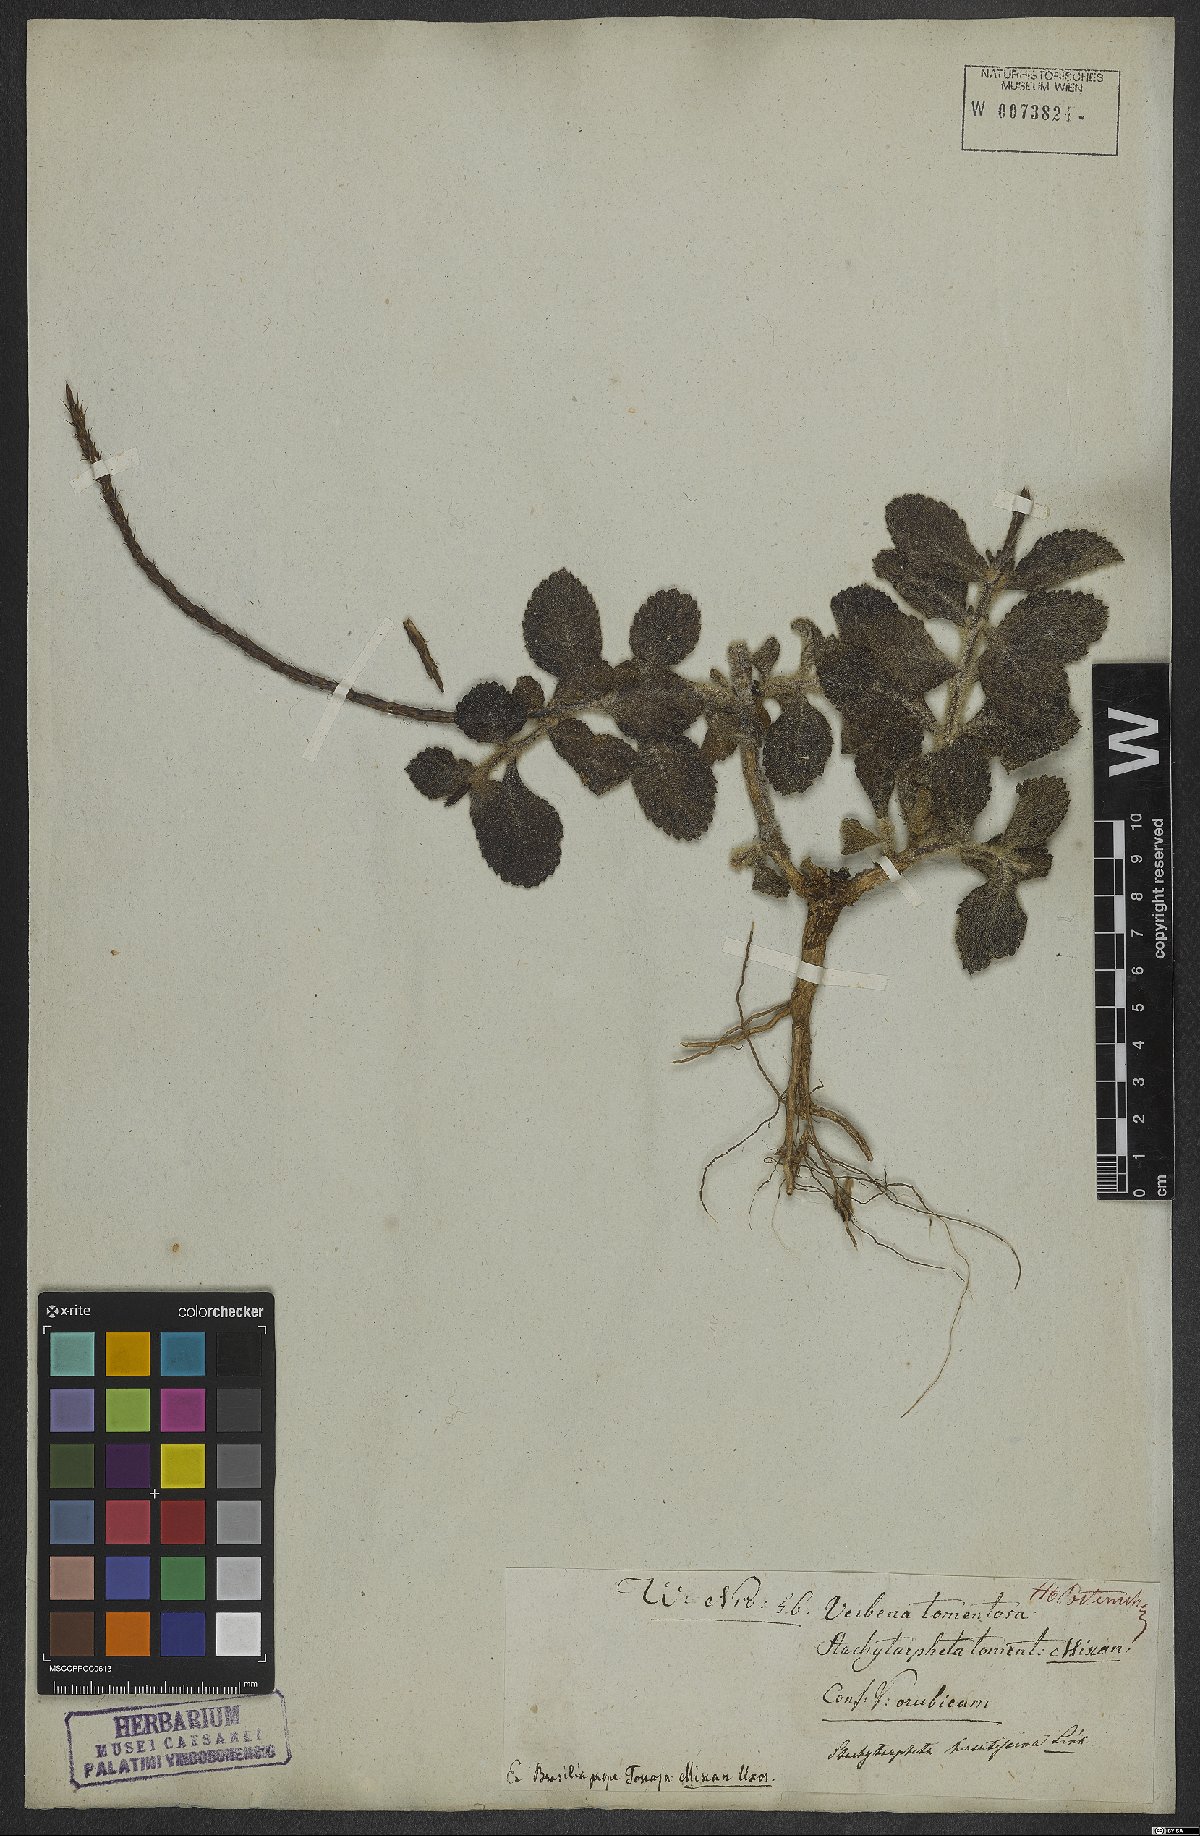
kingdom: Plantae
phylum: Tracheophyta
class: Magnoliopsida
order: Lamiales
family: Verbenaceae
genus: Stachytarpheta
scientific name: Stachytarpheta canescens
